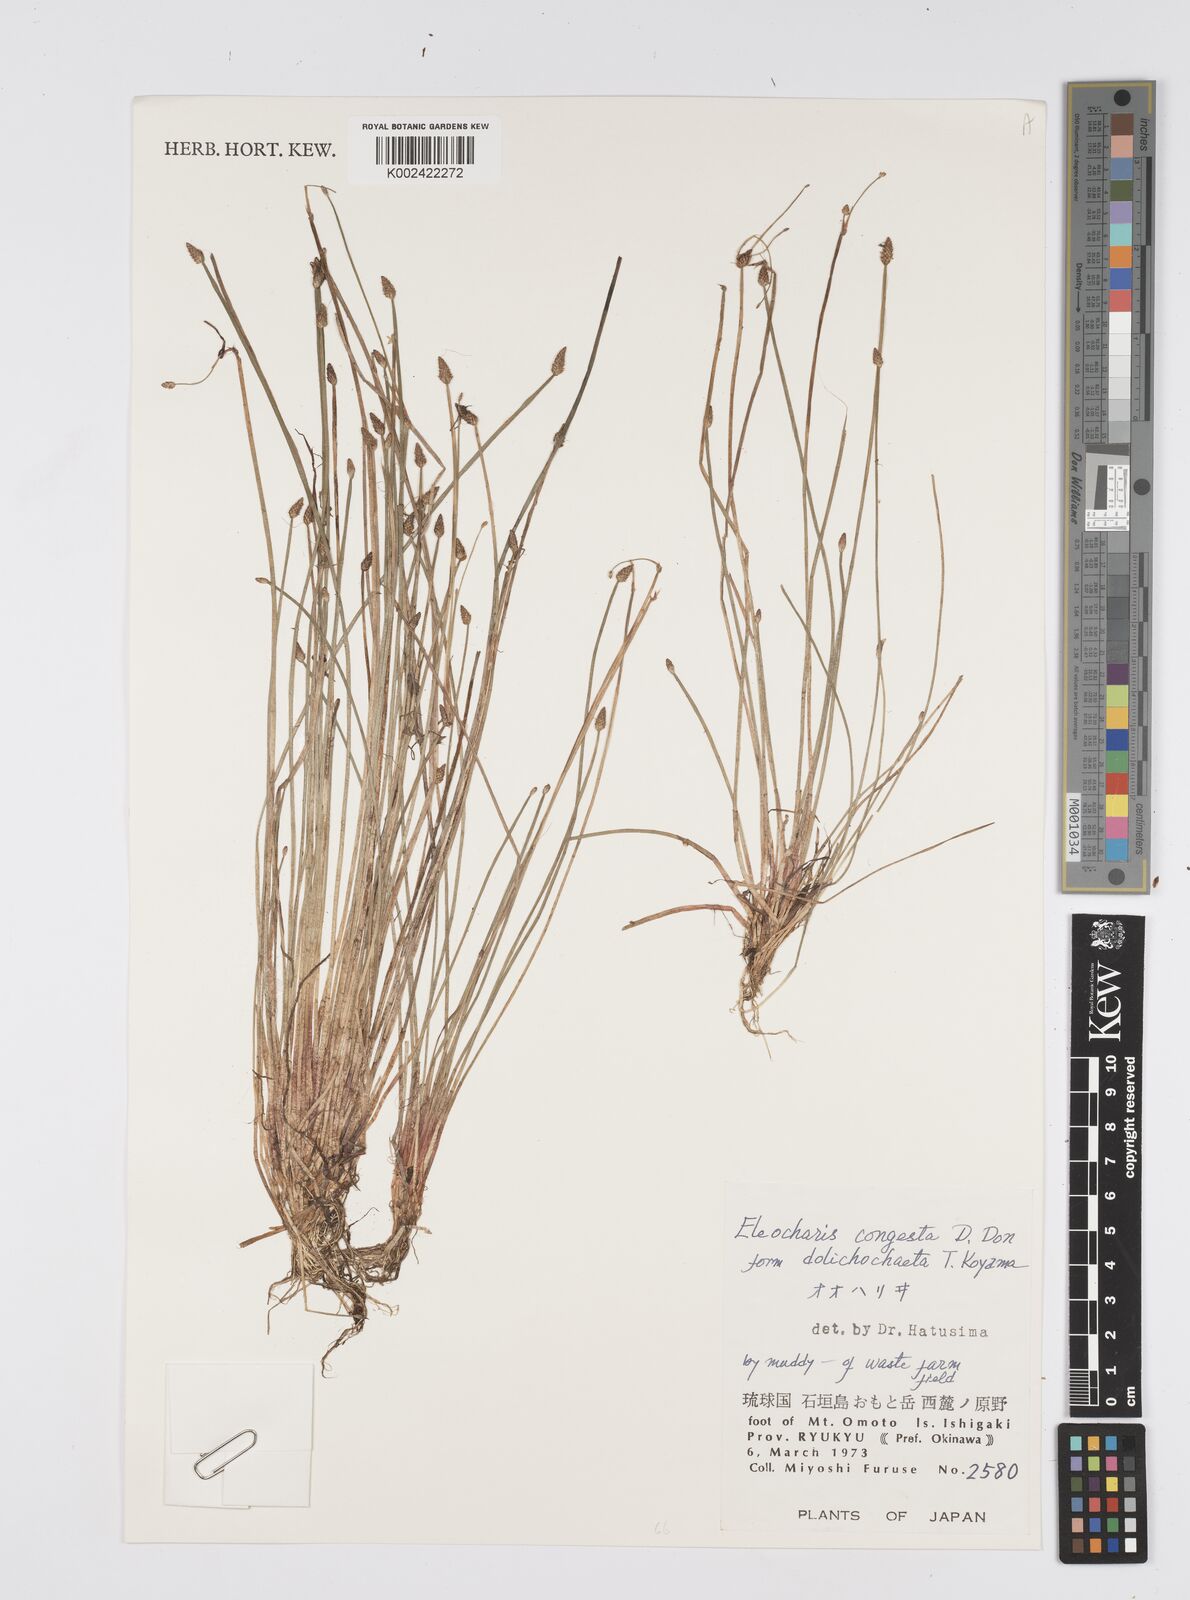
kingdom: Plantae
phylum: Tracheophyta
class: Liliopsida
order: Poales
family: Cyperaceae
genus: Eleocharis
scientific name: Eleocharis congesta
